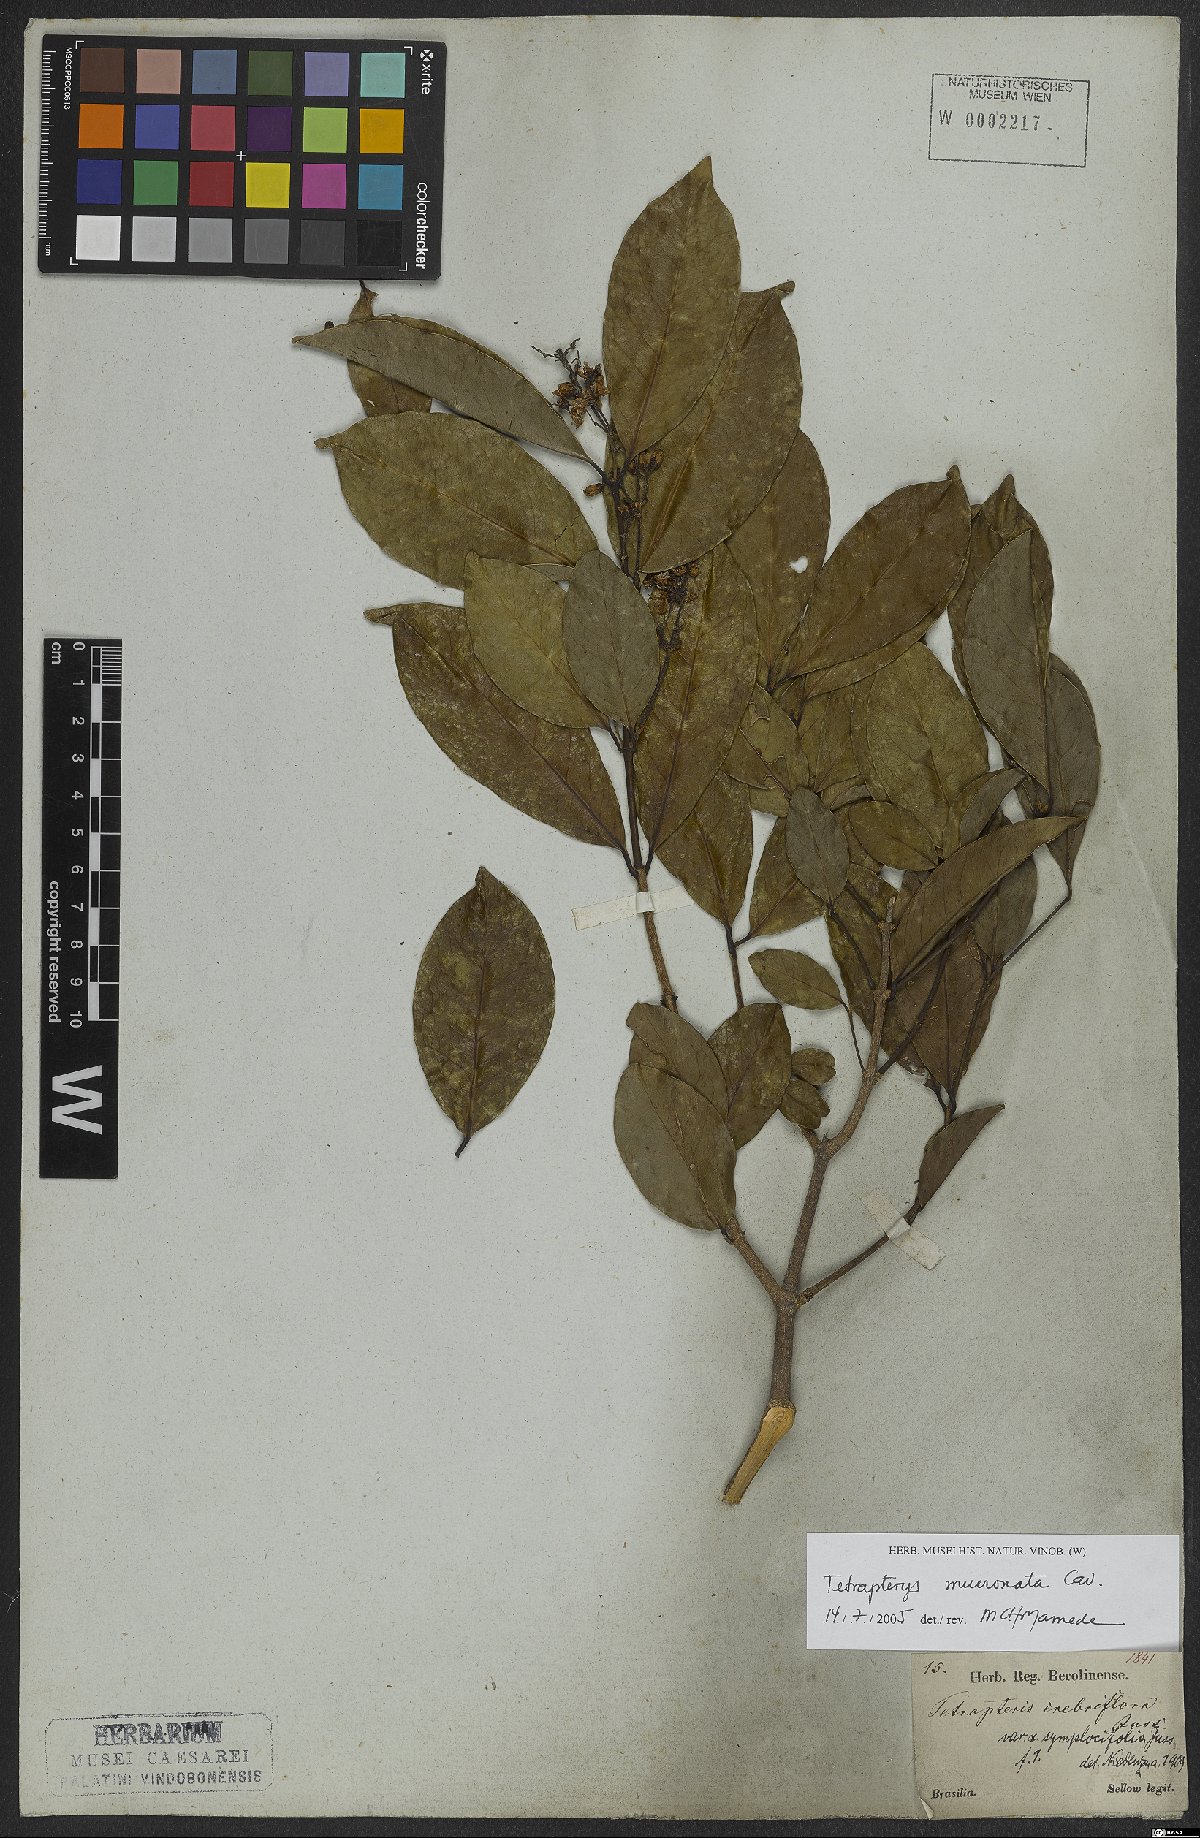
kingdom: Plantae
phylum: Tracheophyta
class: Magnoliopsida
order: Malpighiales
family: Malpighiaceae
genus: Tetrapterys
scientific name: Tetrapterys mucronata
